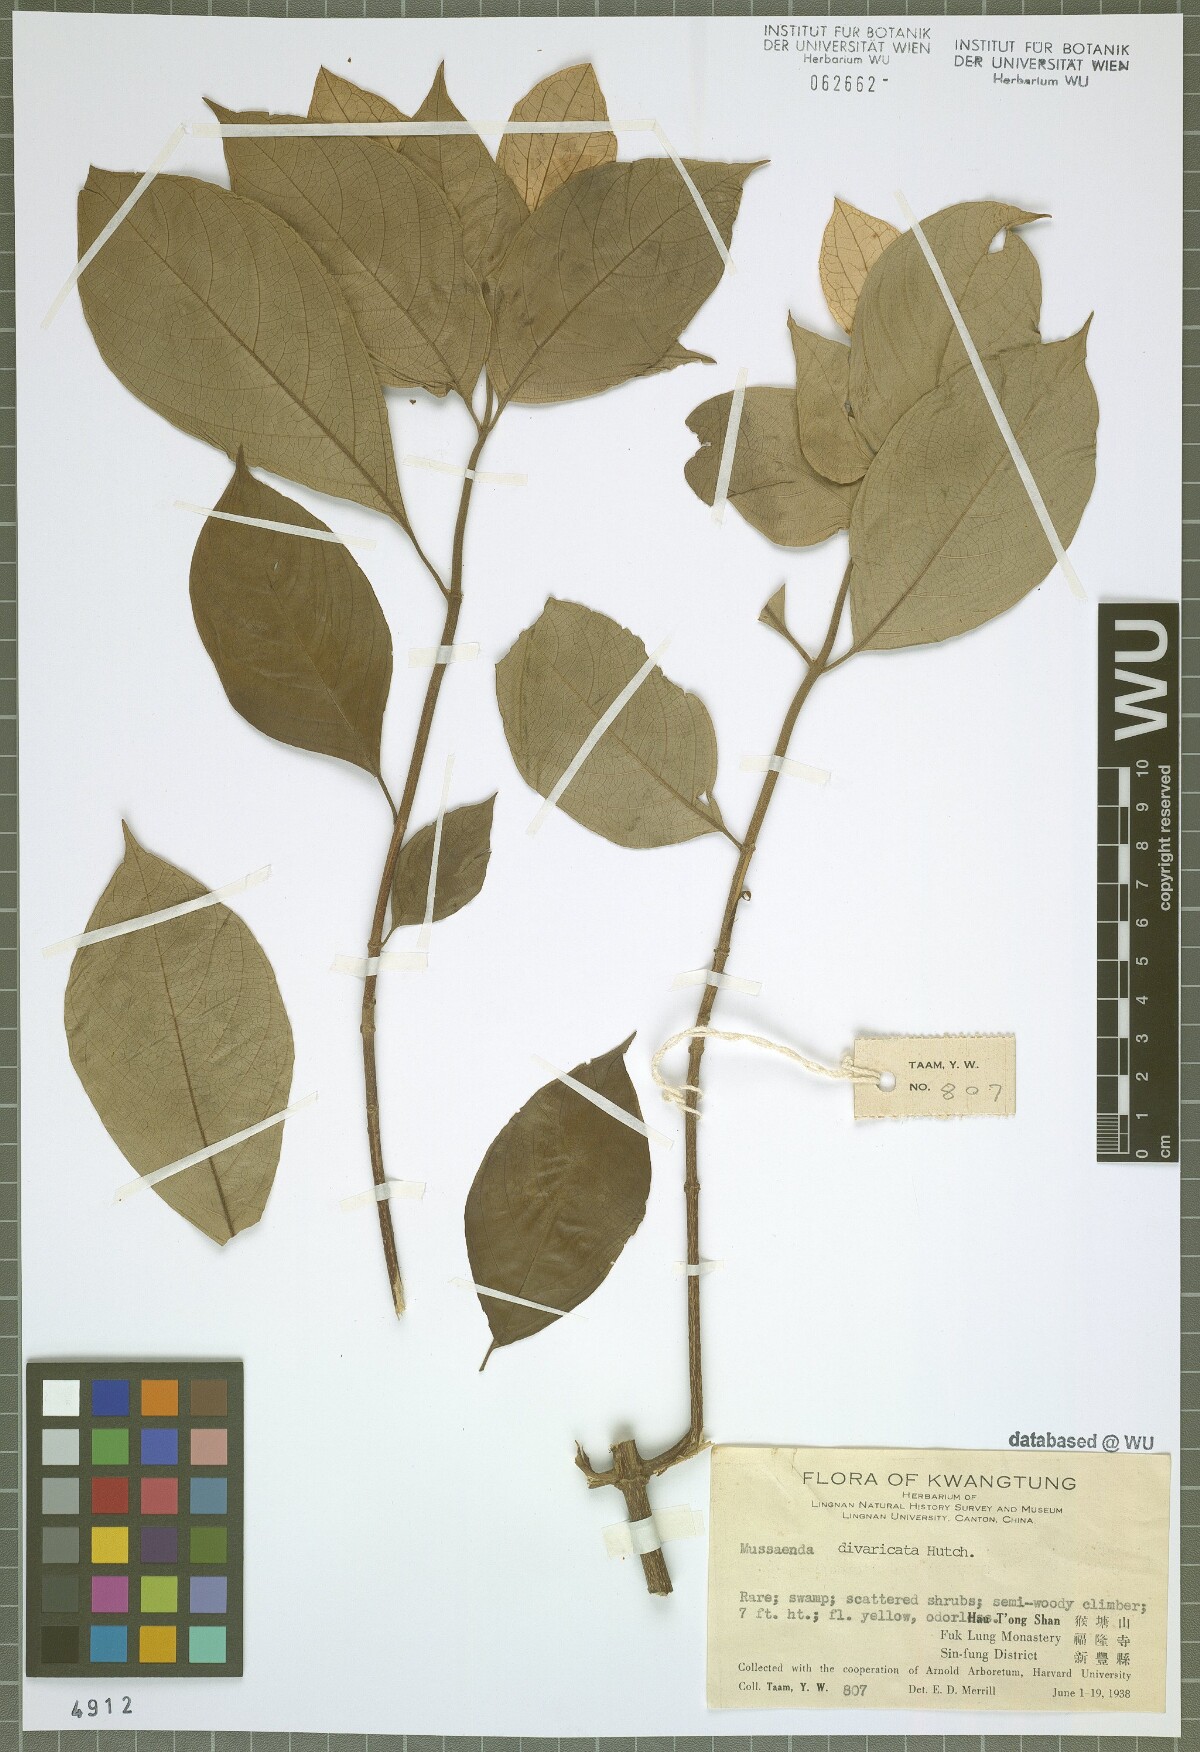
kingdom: Plantae
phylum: Tracheophyta
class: Magnoliopsida
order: Gentianales
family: Rubiaceae
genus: Mussaenda
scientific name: Mussaenda divaricata
